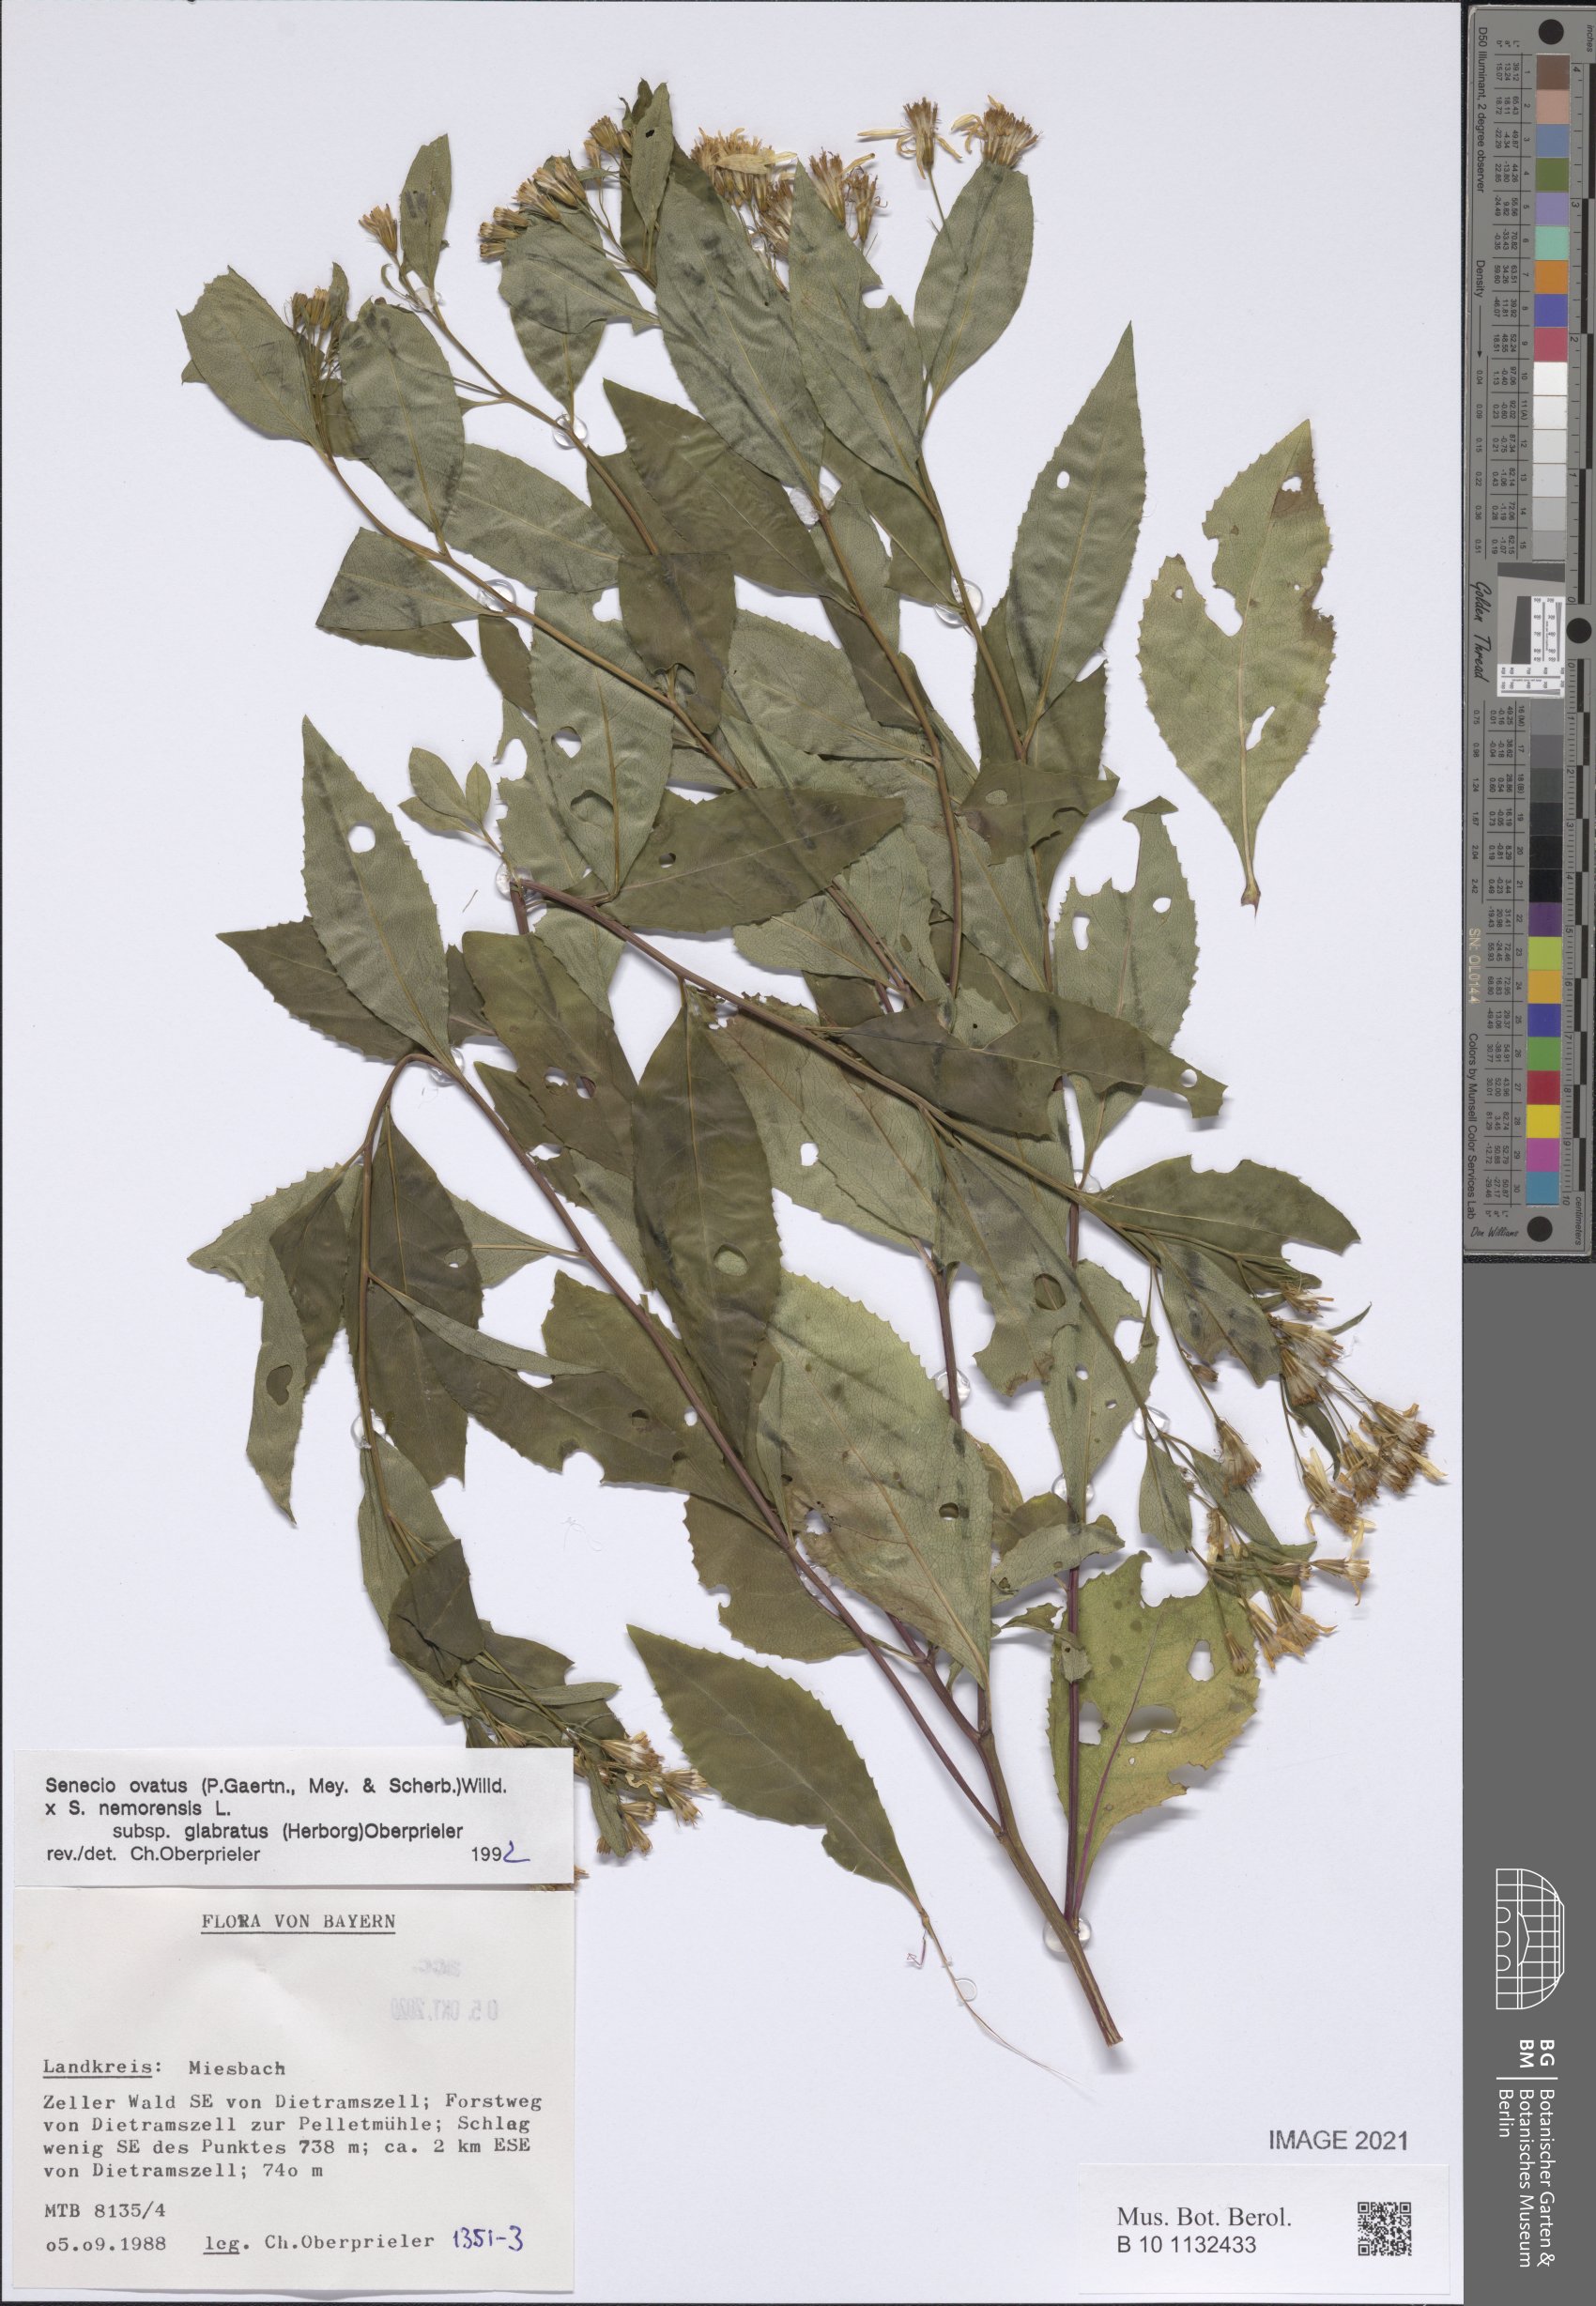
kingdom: Plantae
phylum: Tracheophyta
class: Magnoliopsida
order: Asterales
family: Asteraceae
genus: Senecio
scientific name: Senecio ovatus
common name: Wood ragwort
